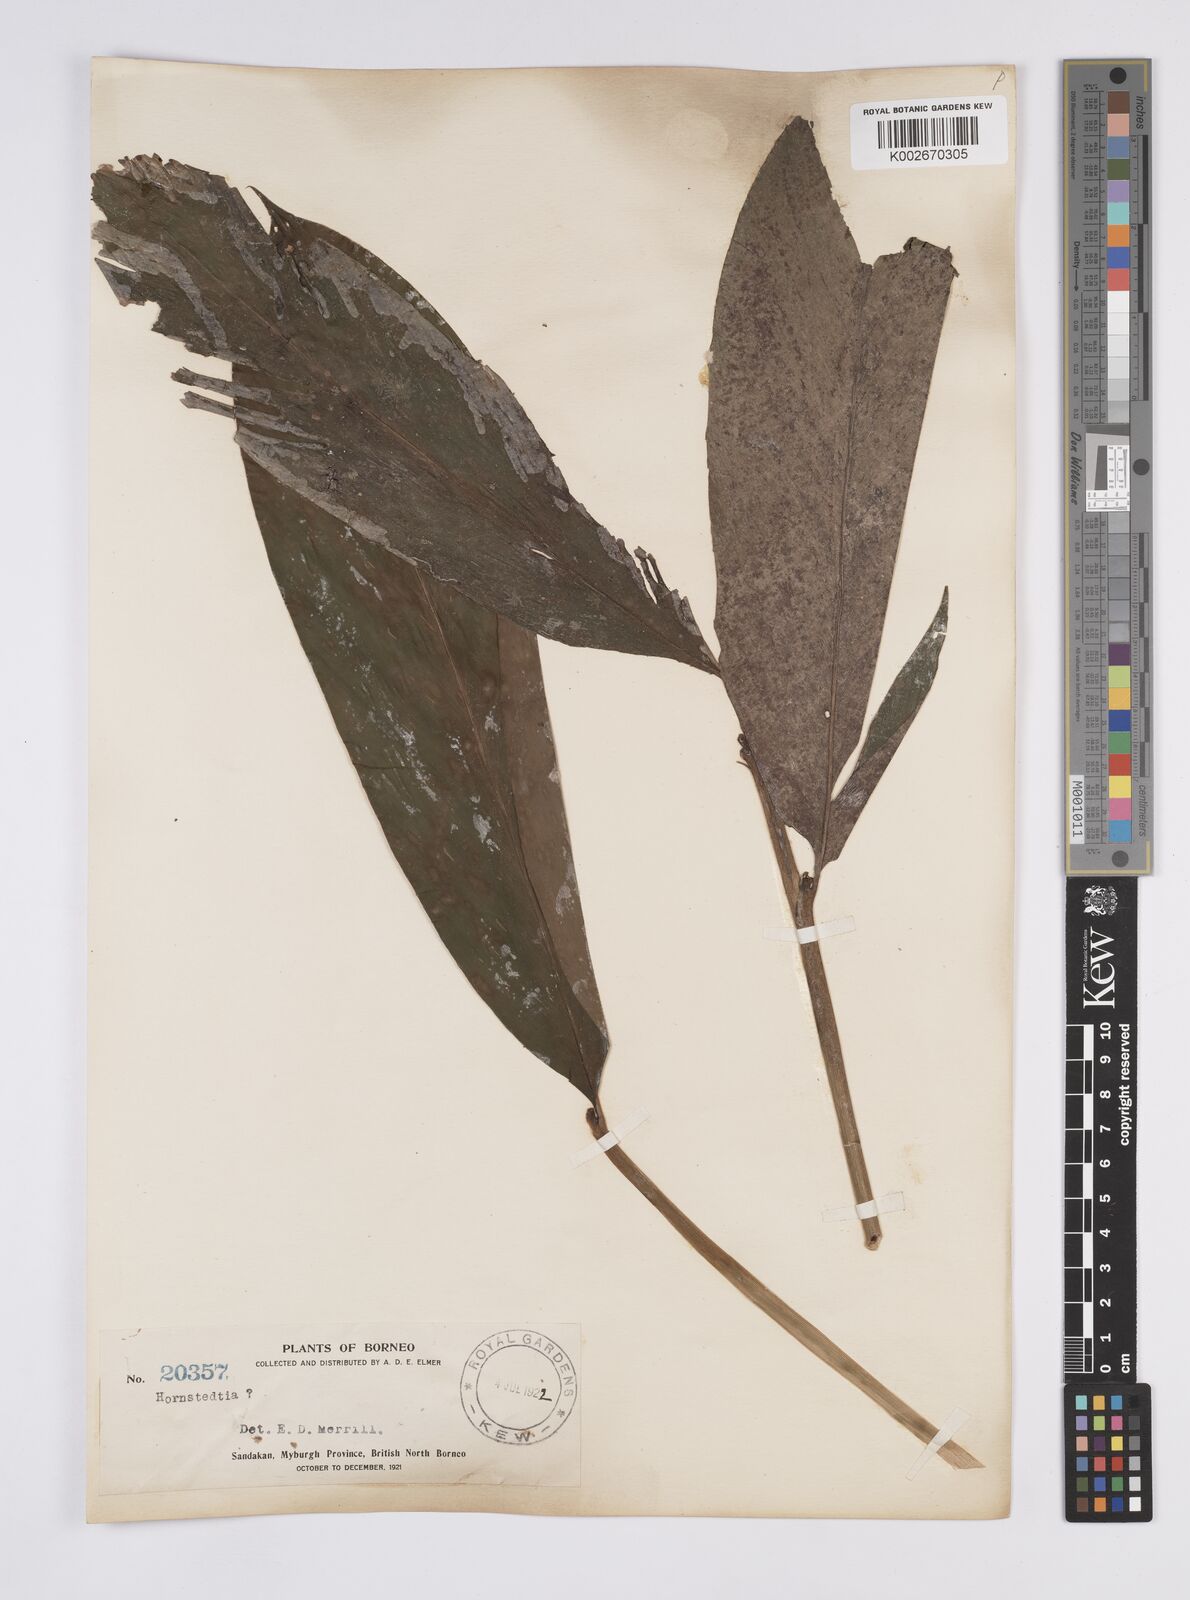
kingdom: Plantae
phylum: Tracheophyta
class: Liliopsida
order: Zingiberales
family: Zingiberaceae
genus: Hornstedtia
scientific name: Hornstedtia
